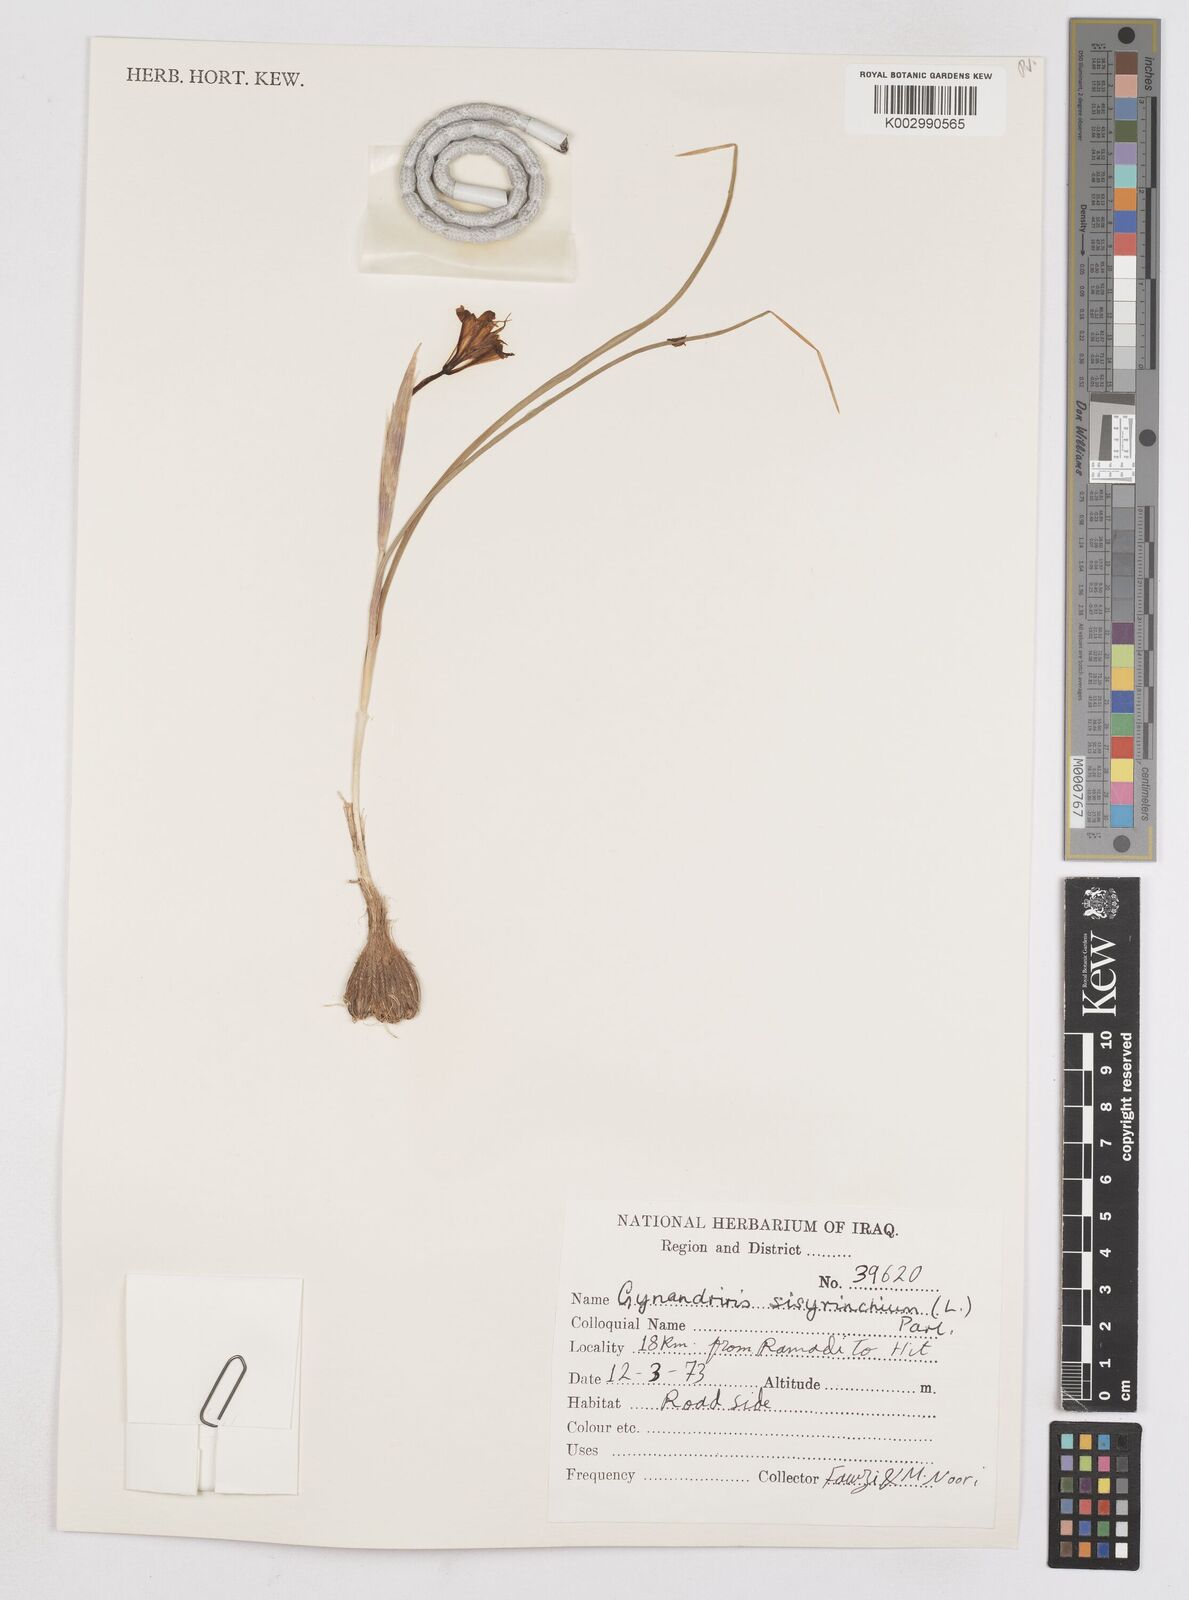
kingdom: Plantae
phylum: Tracheophyta
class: Liliopsida
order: Asparagales
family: Iridaceae
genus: Moraea
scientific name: Moraea sisyrinchium
